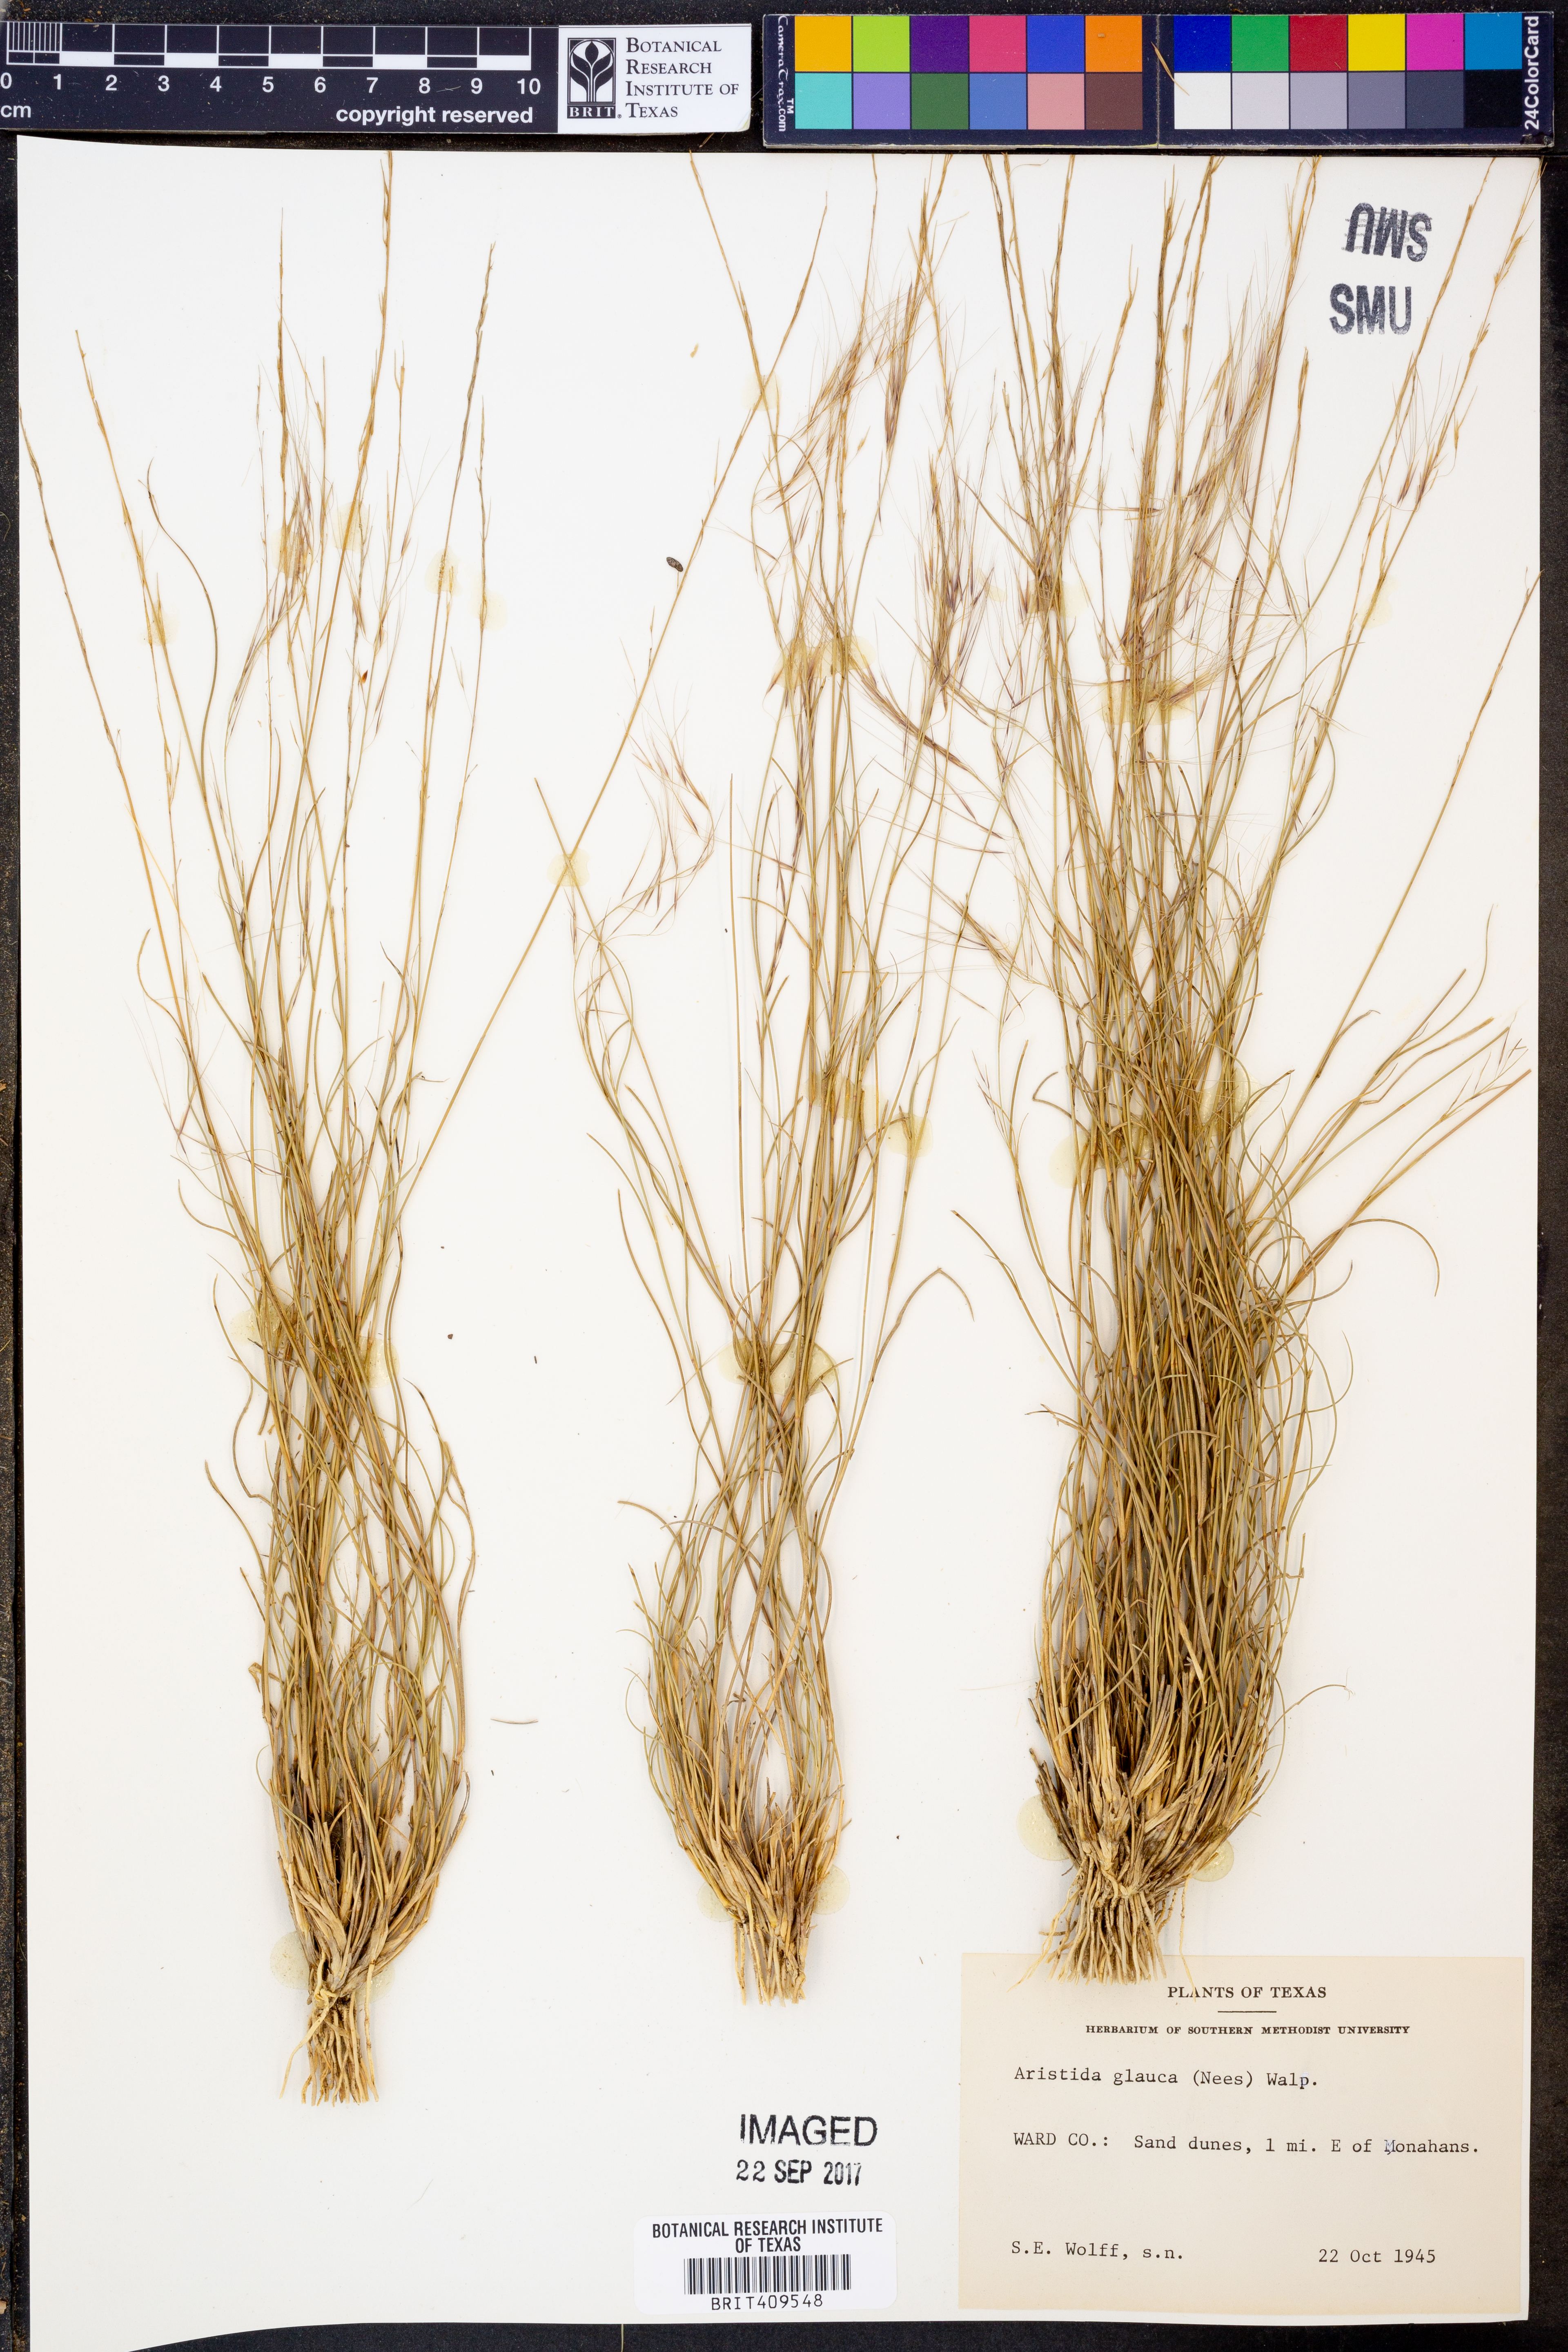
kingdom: Plantae
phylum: Tracheophyta
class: Liliopsida
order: Poales
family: Poaceae
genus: Aristida
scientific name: Aristida glauca
